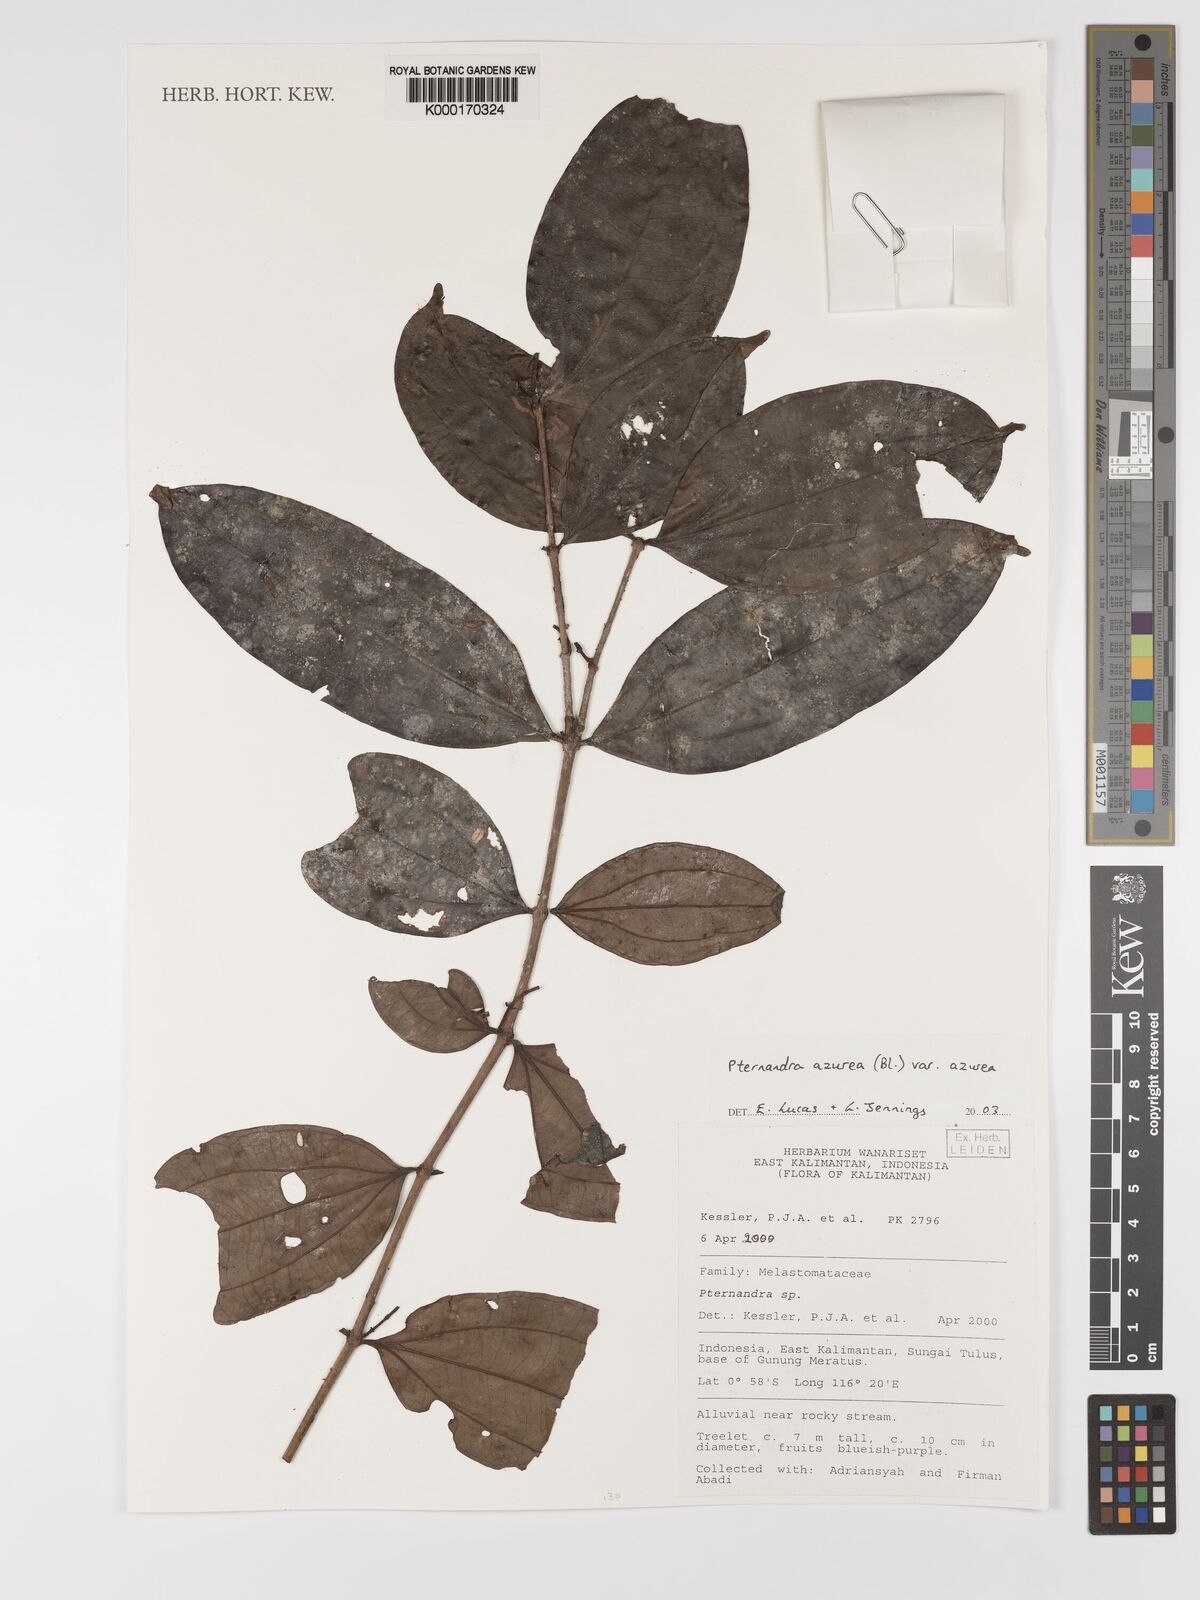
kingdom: Plantae
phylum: Tracheophyta
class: Magnoliopsida
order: Myrtales
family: Melastomataceae
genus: Pternandra
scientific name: Pternandra azurea
